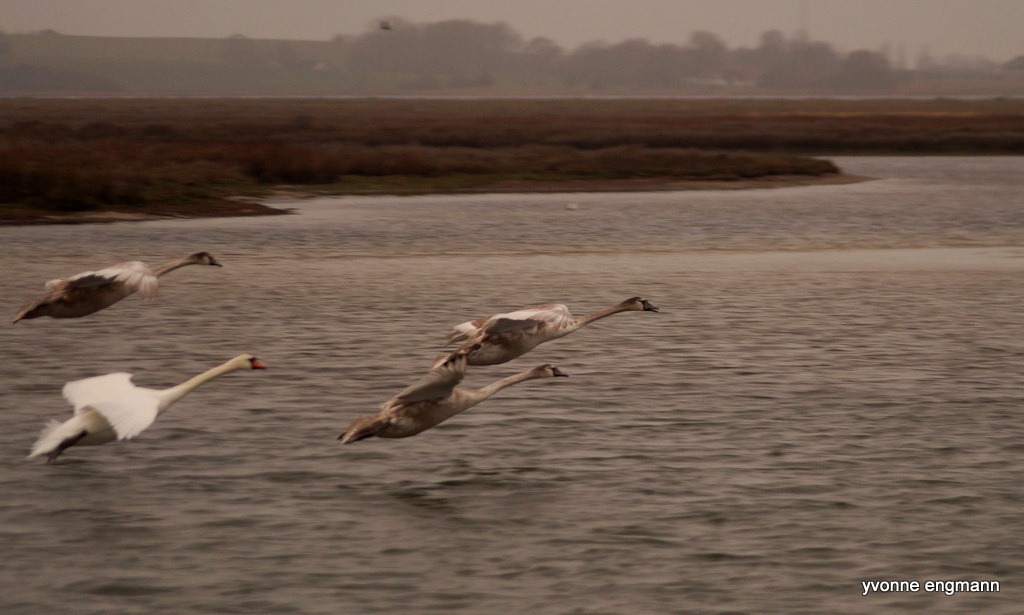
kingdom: Animalia
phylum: Chordata
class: Aves
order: Anseriformes
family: Anatidae
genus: Cygnus
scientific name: Cygnus olor
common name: Knopsvane
